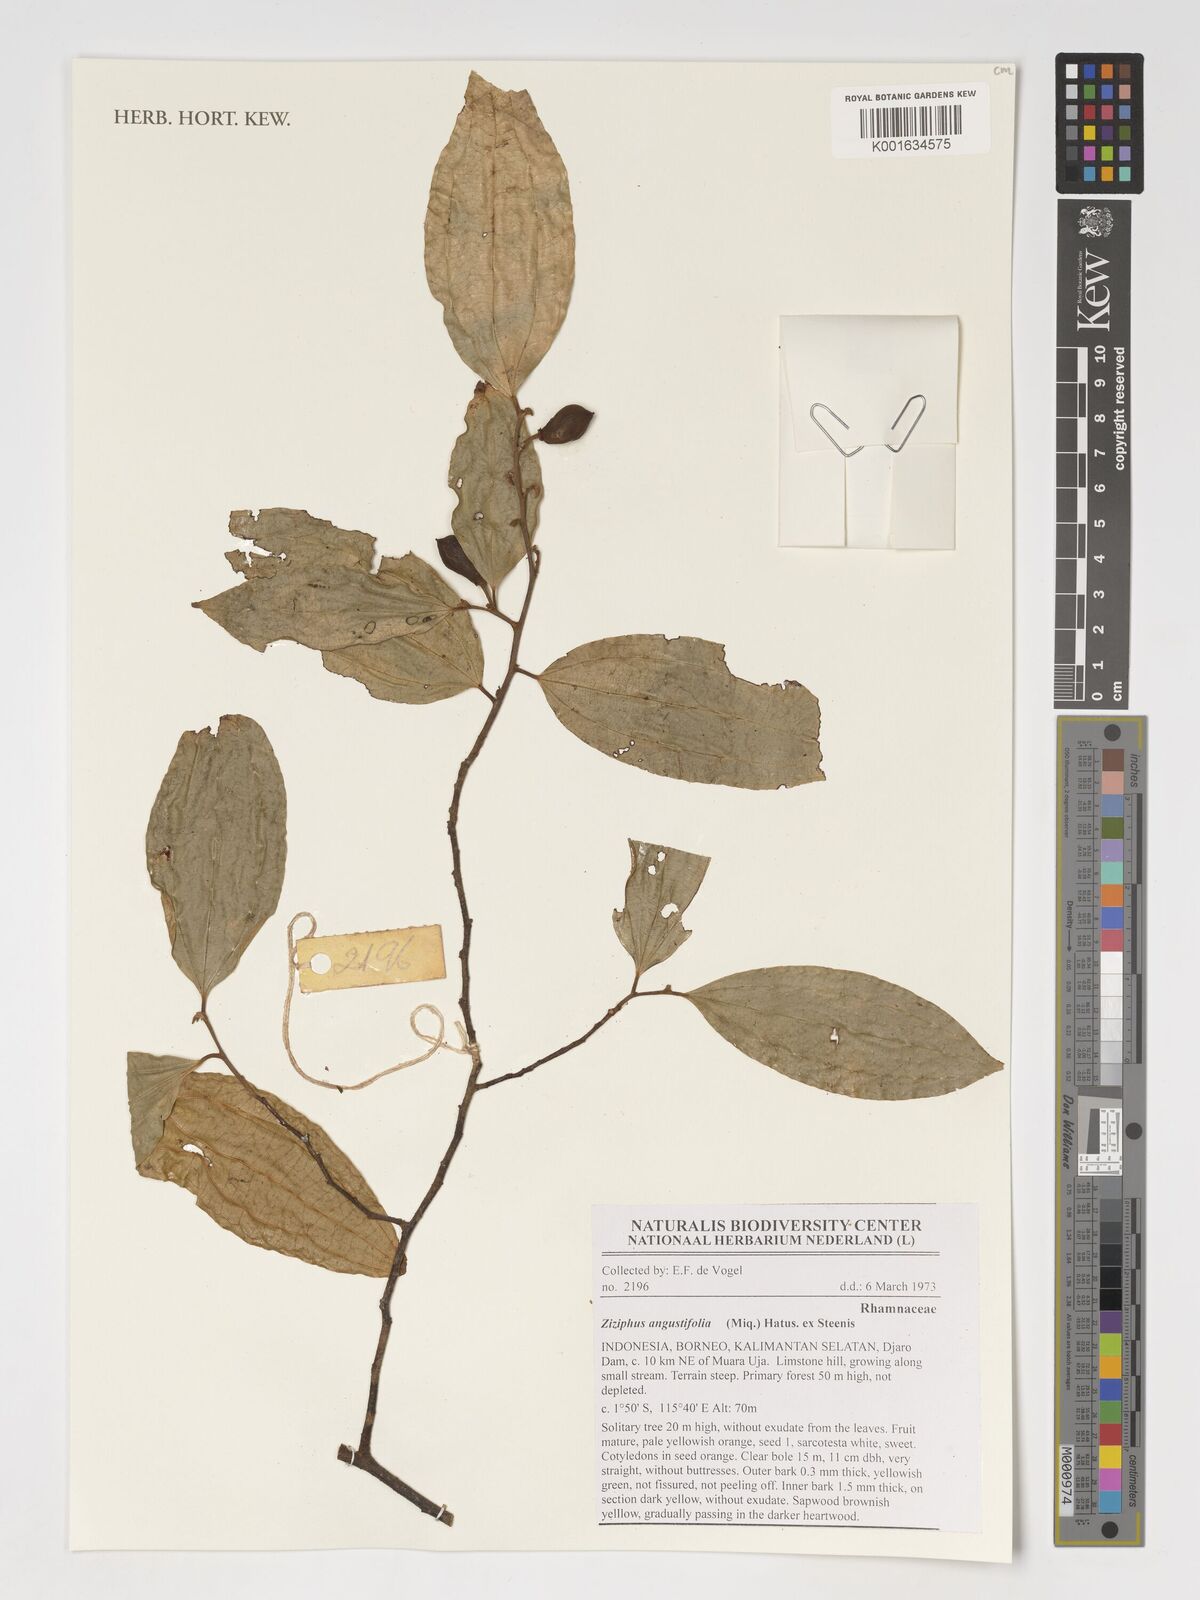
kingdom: Plantae
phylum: Tracheophyta
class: Magnoliopsida
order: Rosales
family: Rhamnaceae
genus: Ziziphus
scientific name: Ziziphus angustifolia
